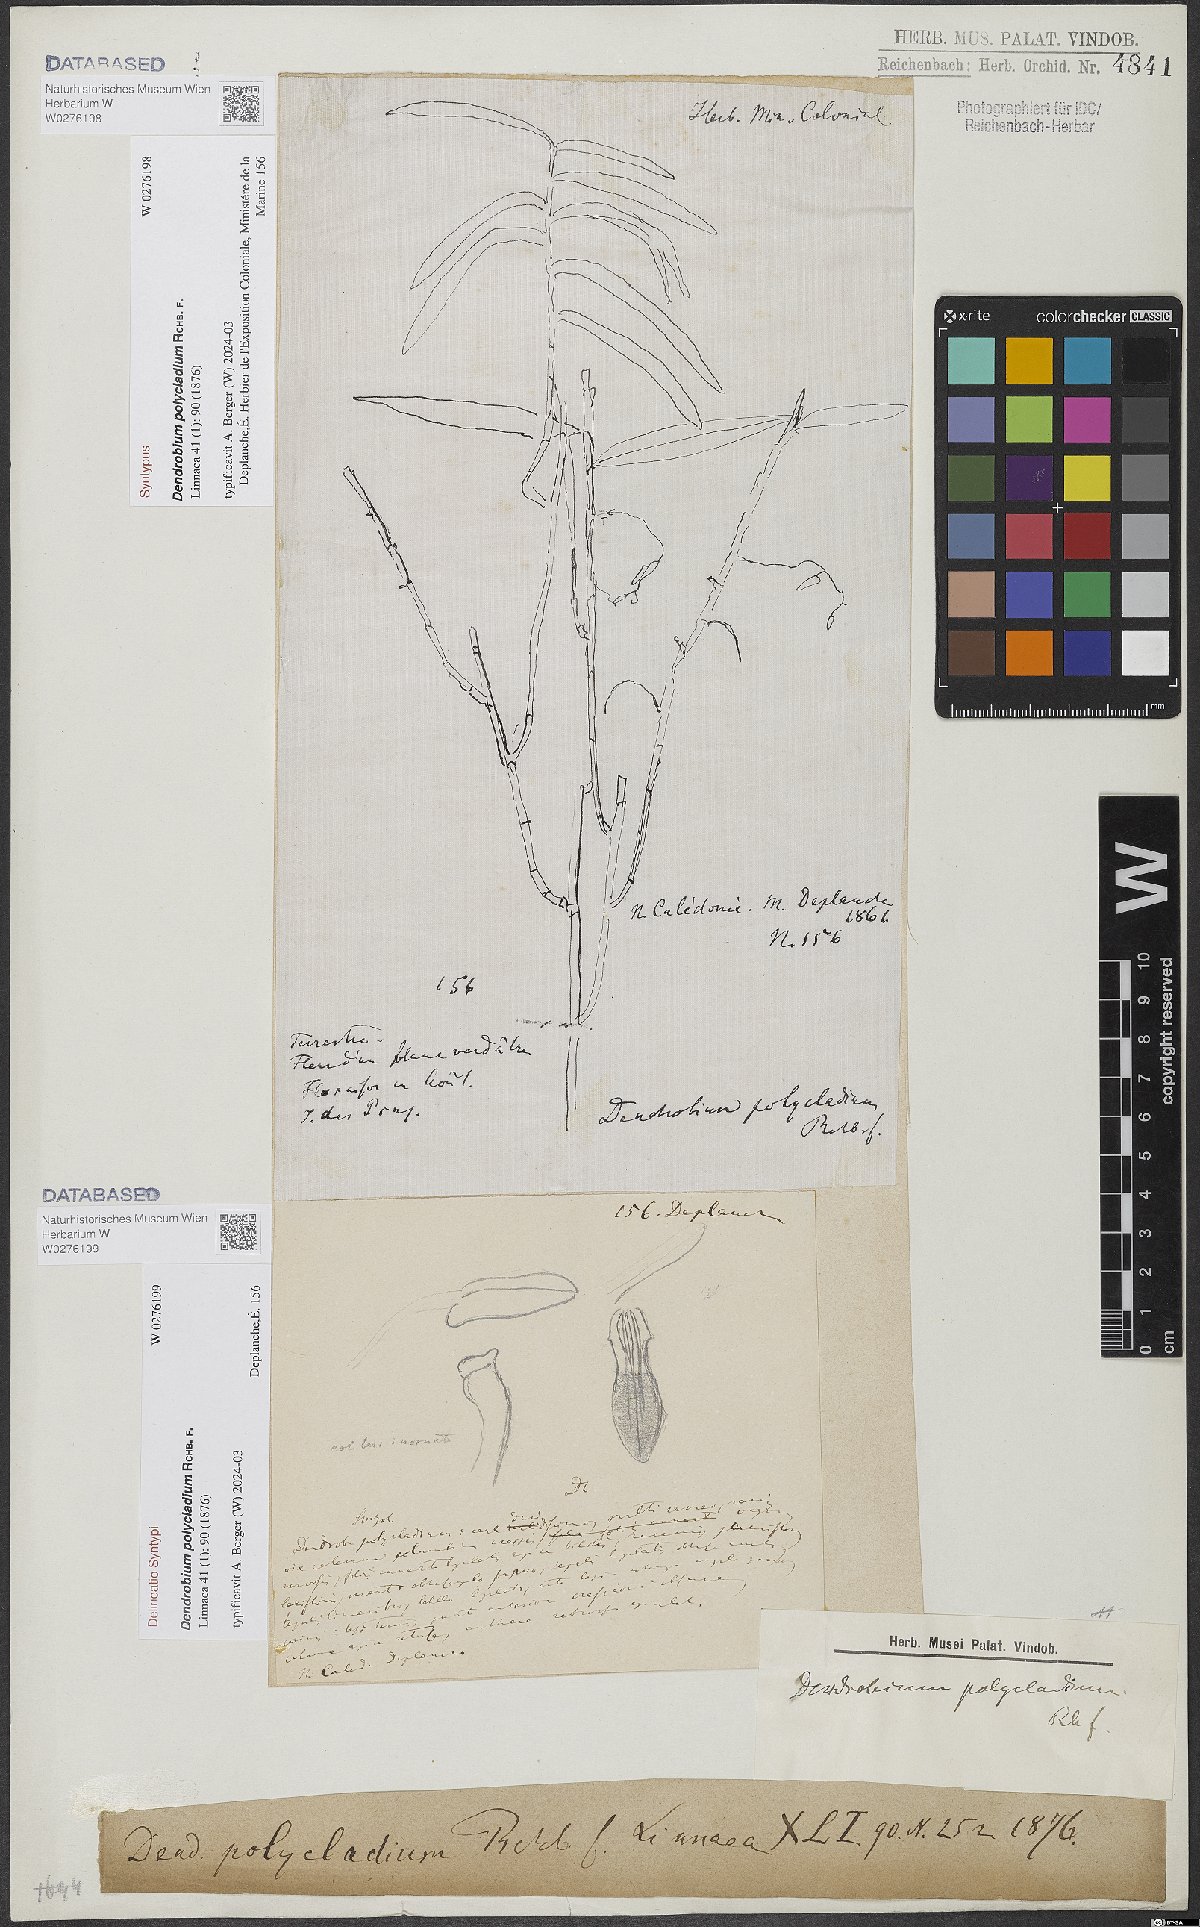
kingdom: Plantae
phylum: Tracheophyta
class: Liliopsida
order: Asparagales
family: Orchidaceae
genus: Dendrobium
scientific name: Dendrobium polycladium
